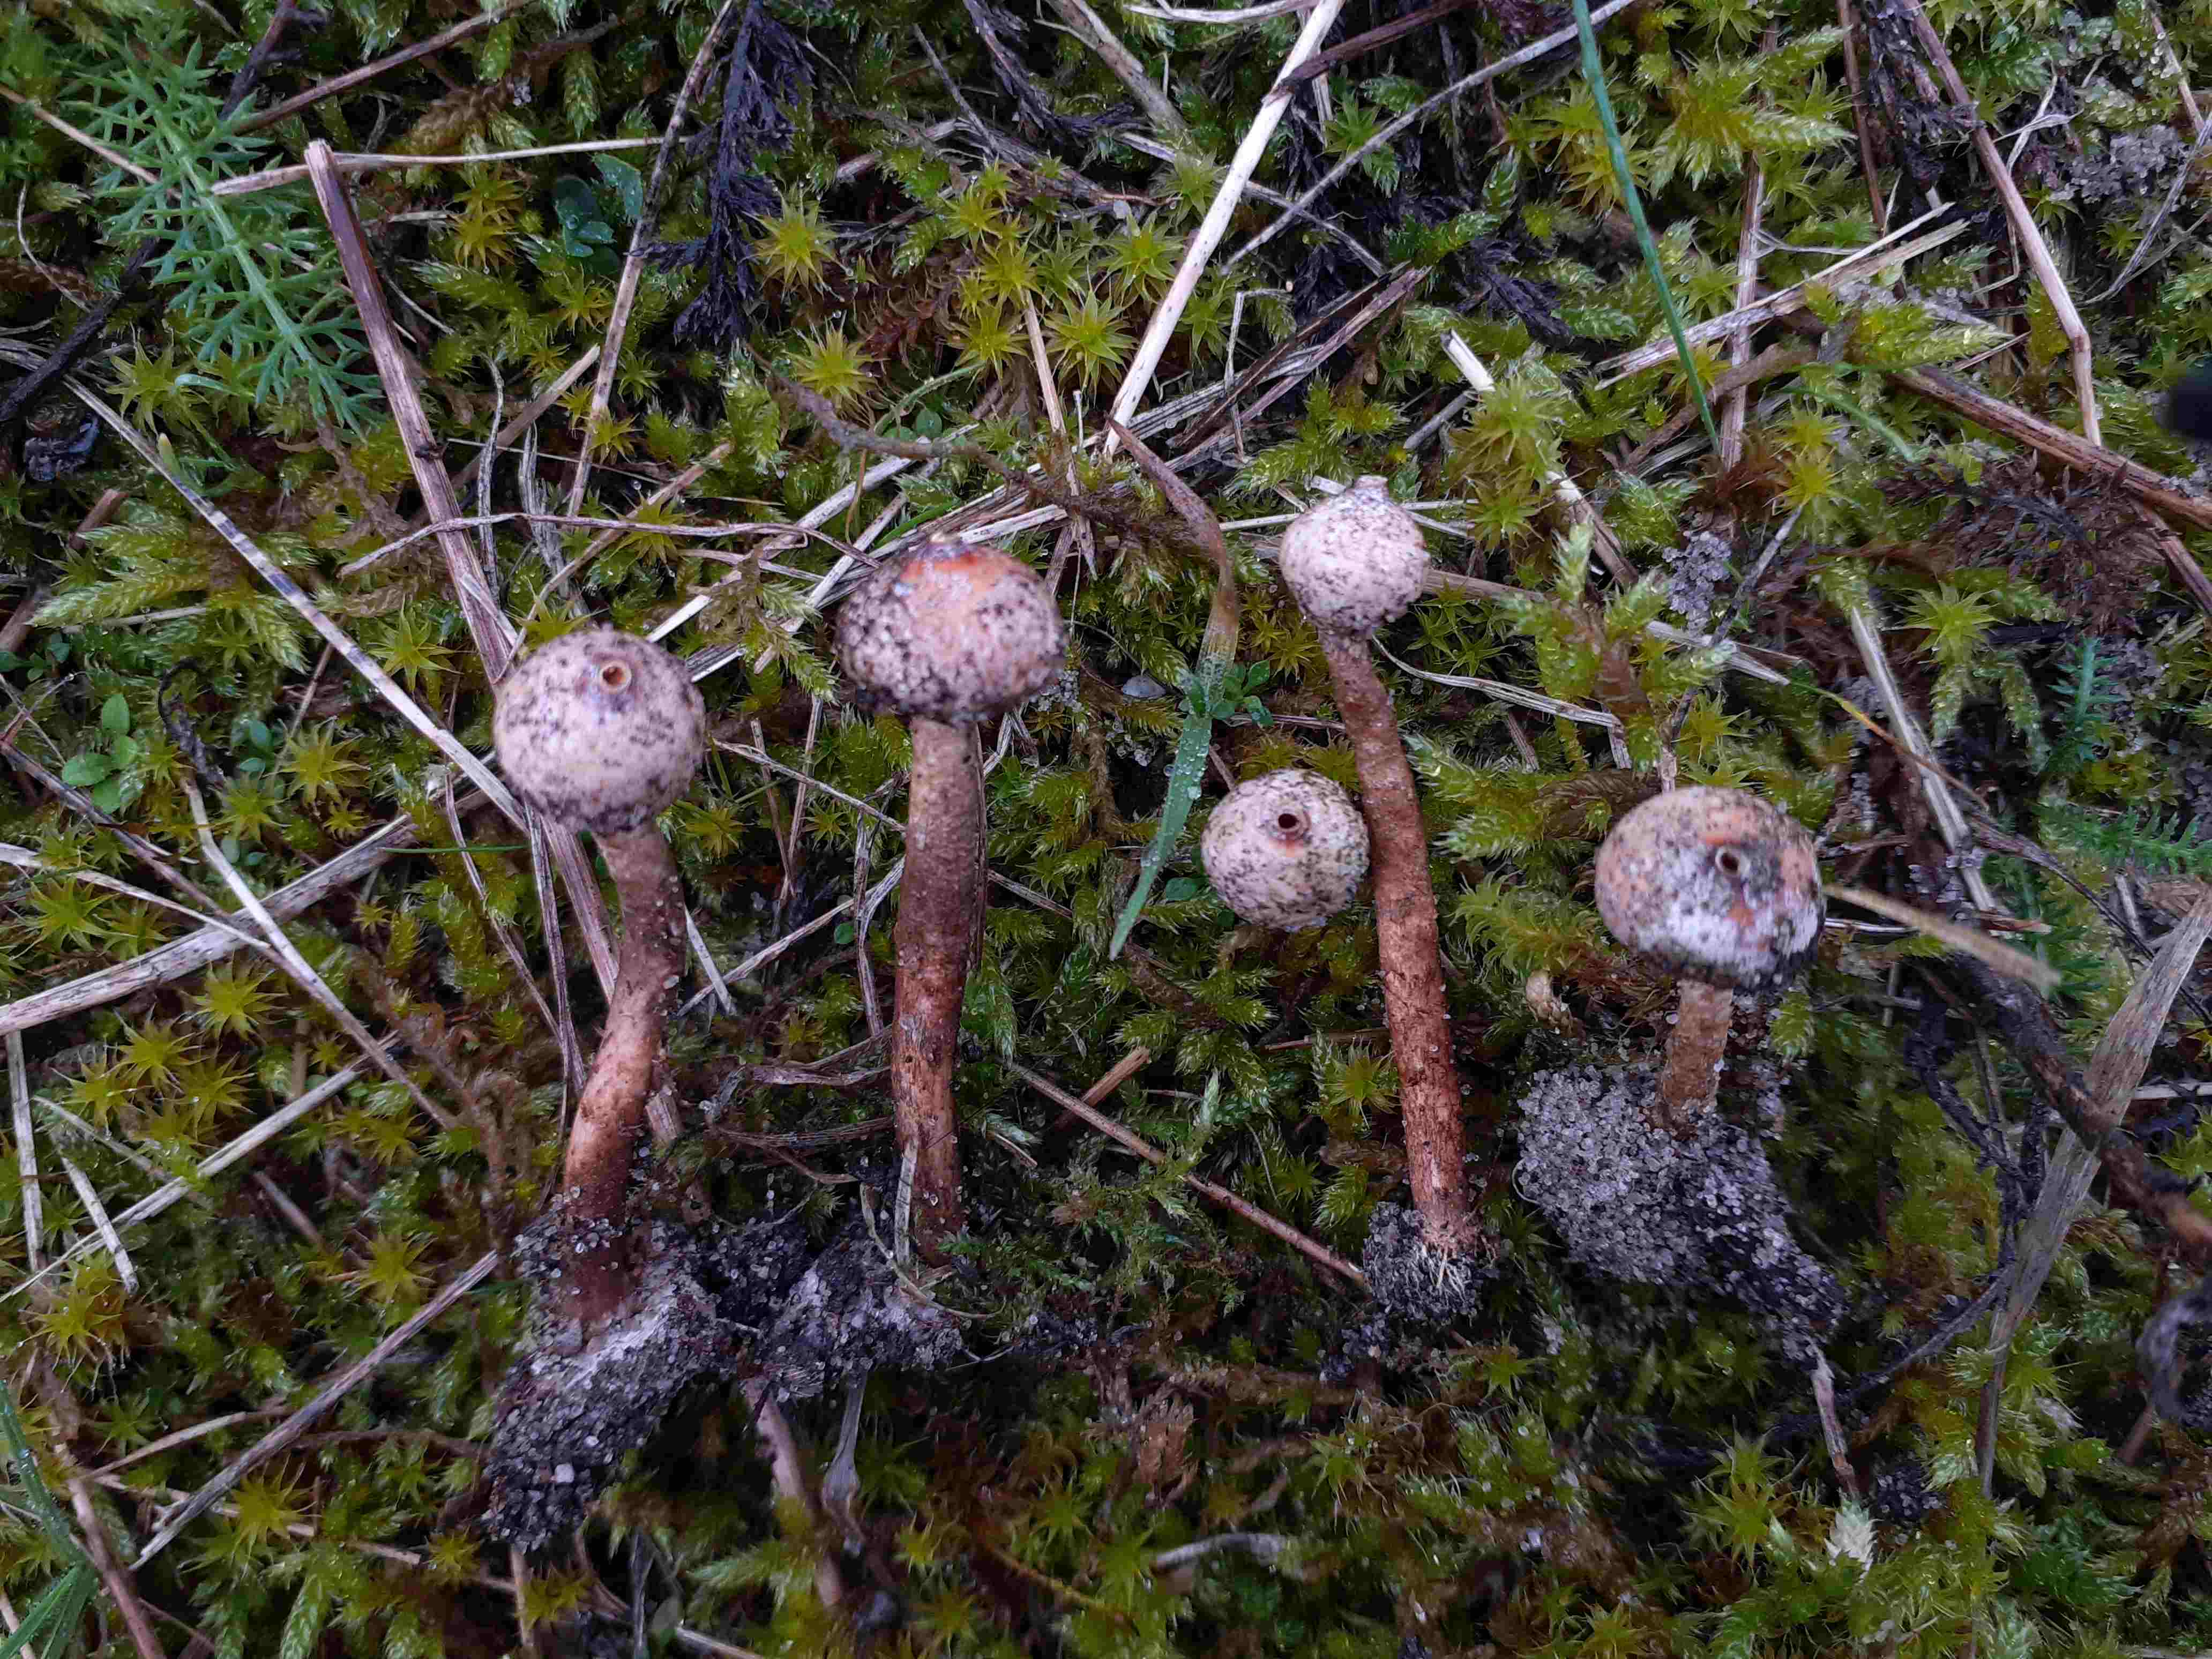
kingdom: Fungi
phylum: Basidiomycota
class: Agaricomycetes
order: Agaricales
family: Agaricaceae
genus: Tulostoma
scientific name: Tulostoma brumale
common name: vinter-stilkbovist
